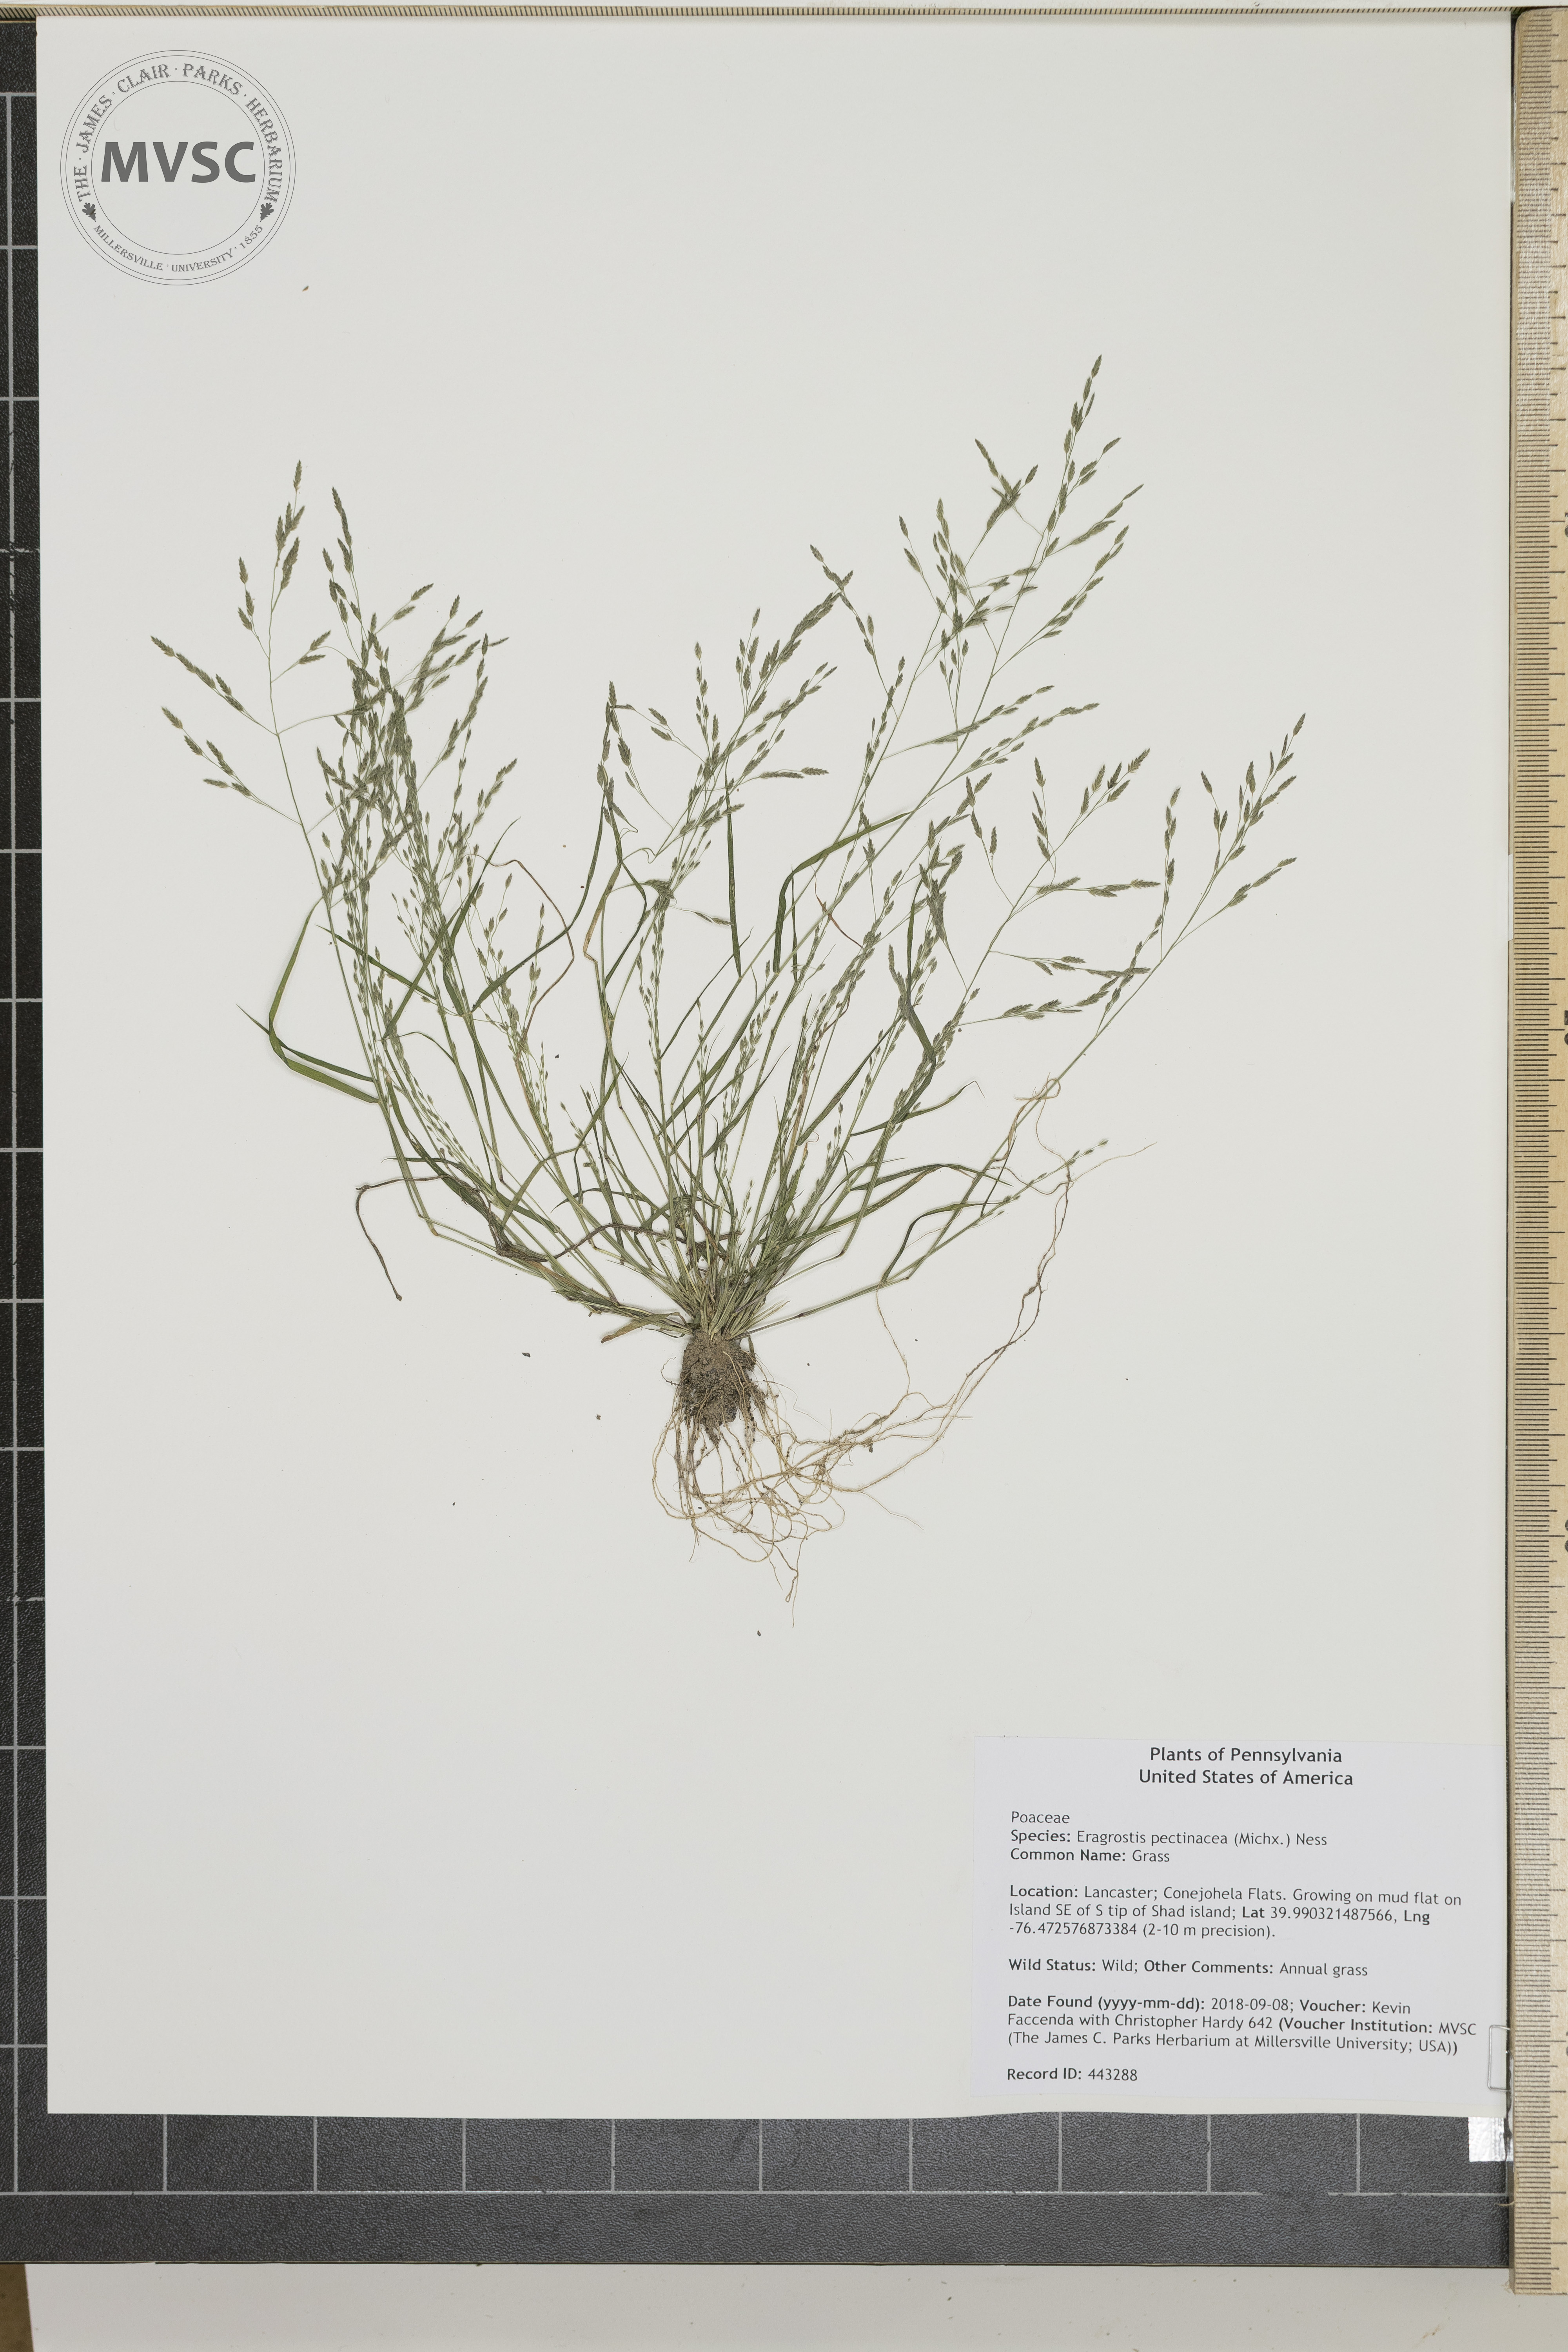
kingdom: Plantae
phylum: Tracheophyta
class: Liliopsida
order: Poales
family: Poaceae
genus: Eragrostis
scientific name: Eragrostis pectinacea
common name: Grass
